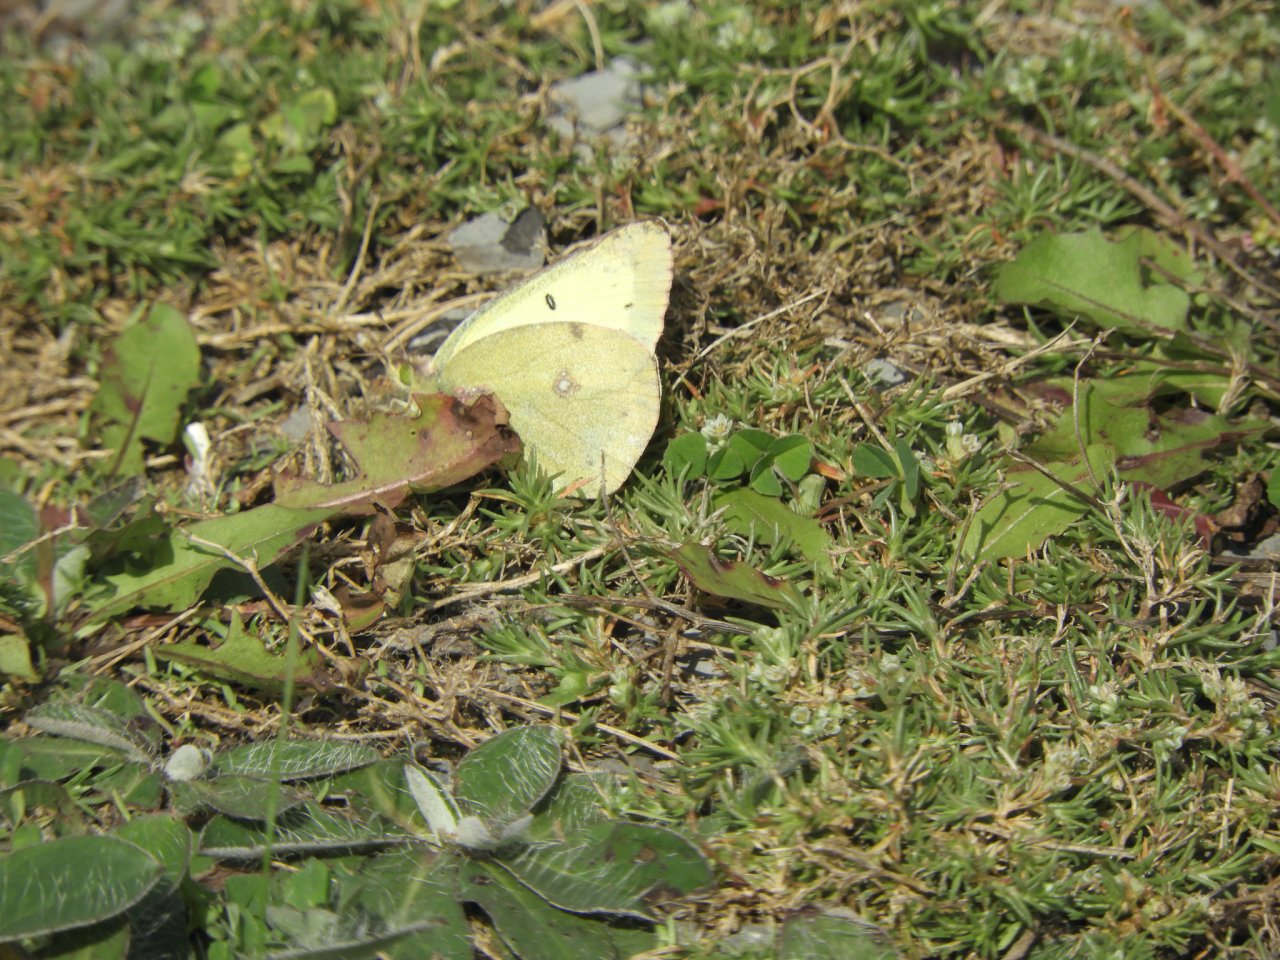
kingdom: Animalia
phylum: Arthropoda
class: Insecta
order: Lepidoptera
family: Pieridae
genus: Colias
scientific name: Colias philodice
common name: Clouded Sulphur
